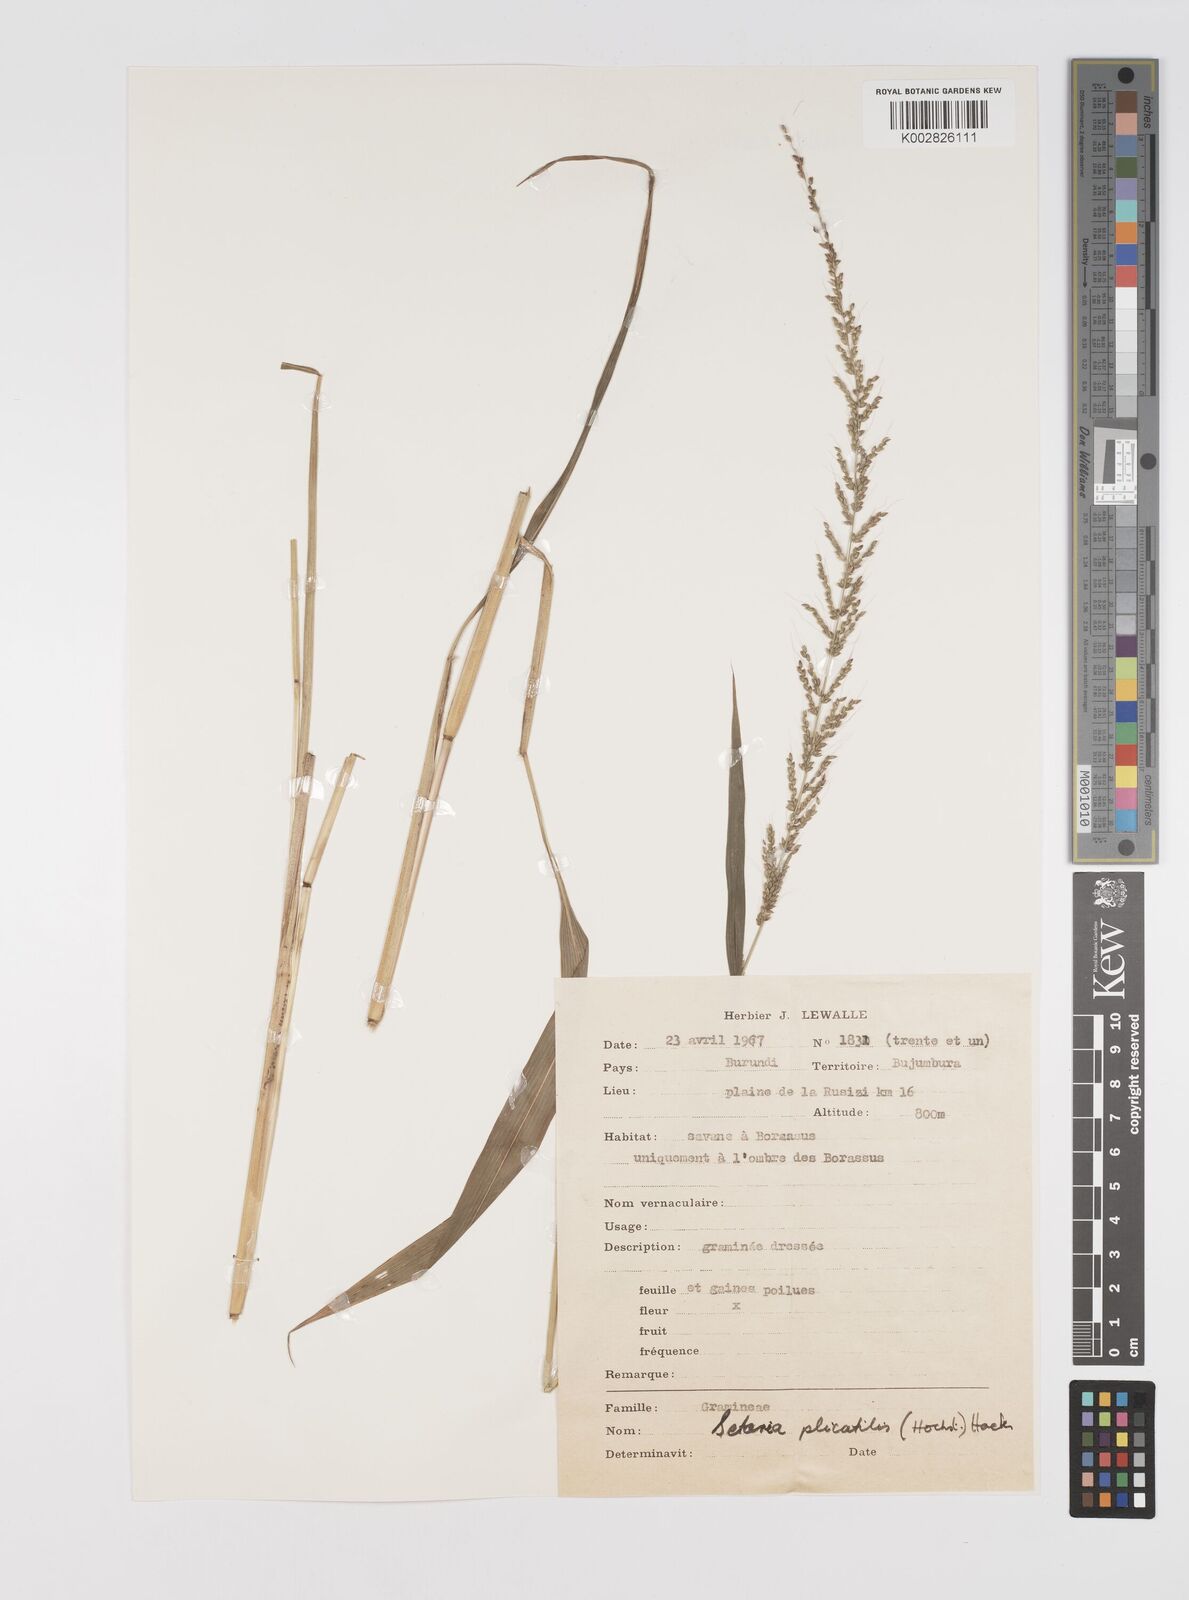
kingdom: Plantae
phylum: Tracheophyta
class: Liliopsida
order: Poales
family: Poaceae
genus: Setaria
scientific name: Setaria kagerensis
